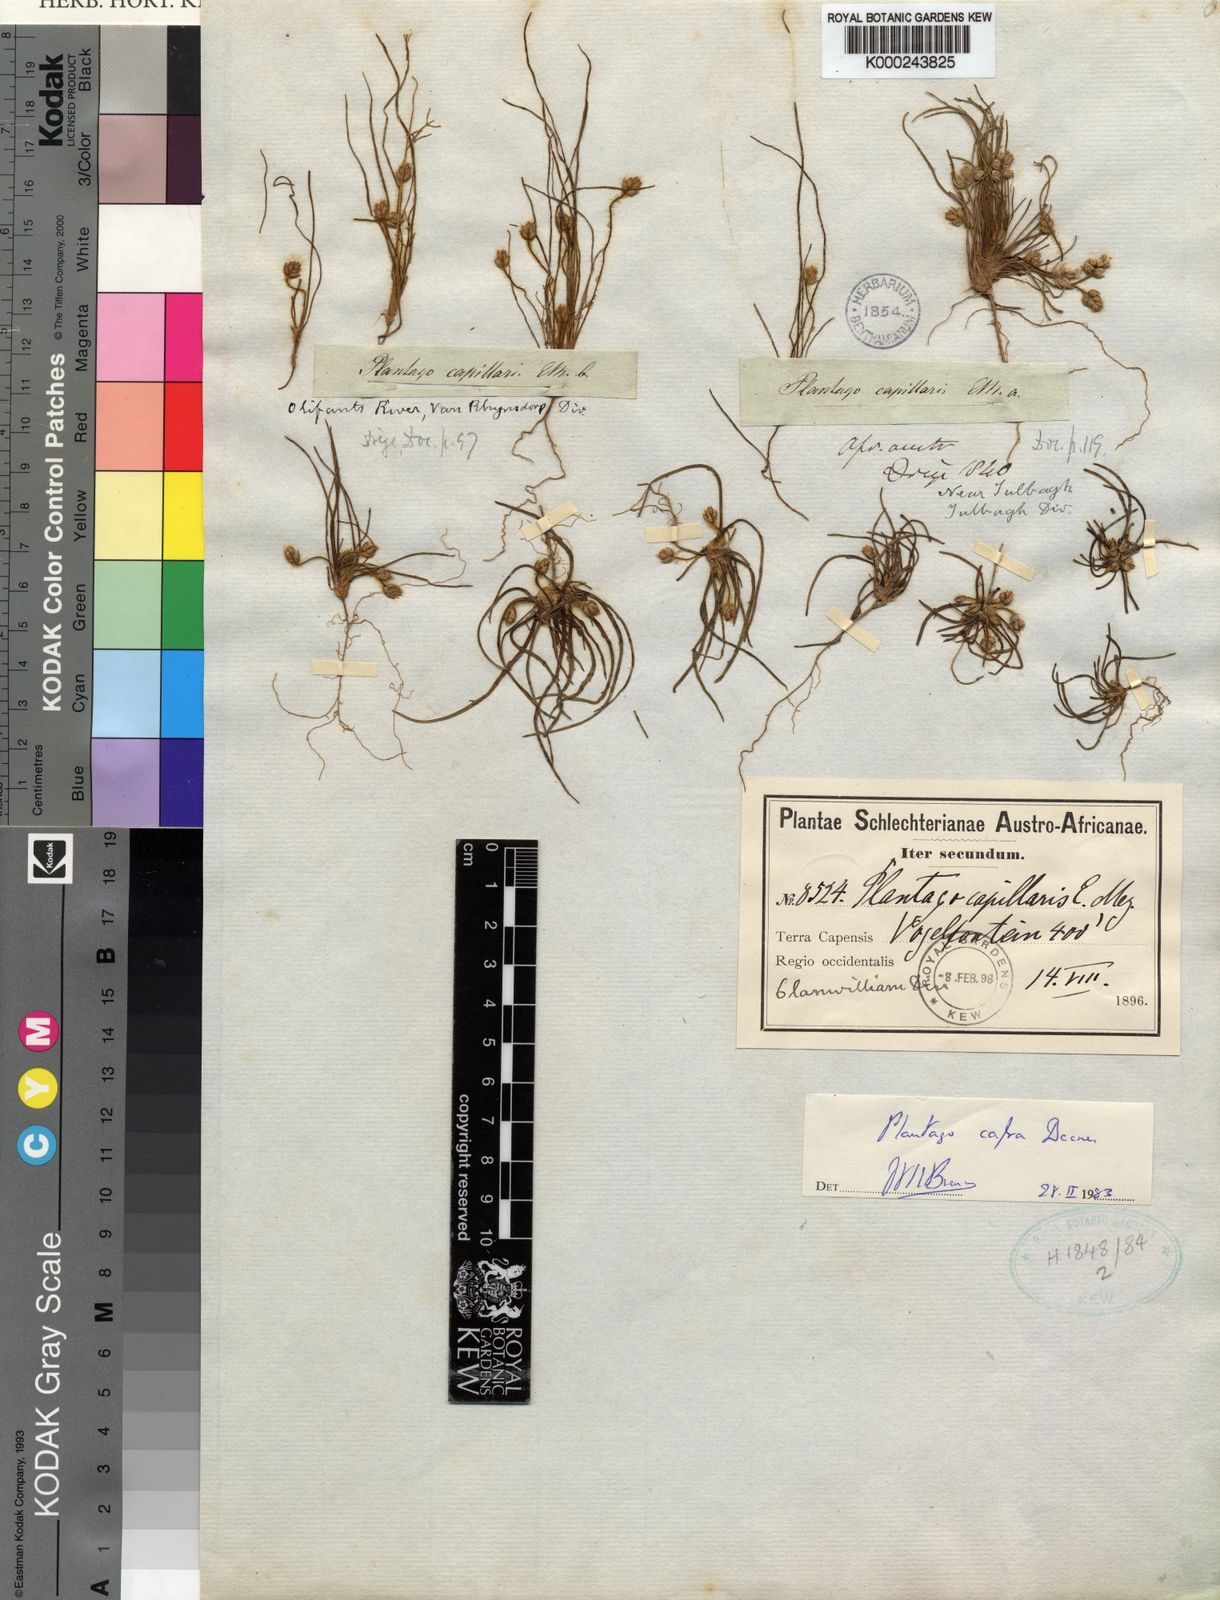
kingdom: Plantae
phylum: Tracheophyta
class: Magnoliopsida
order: Lamiales
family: Plantaginaceae
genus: Plantago
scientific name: Plantago cafra
